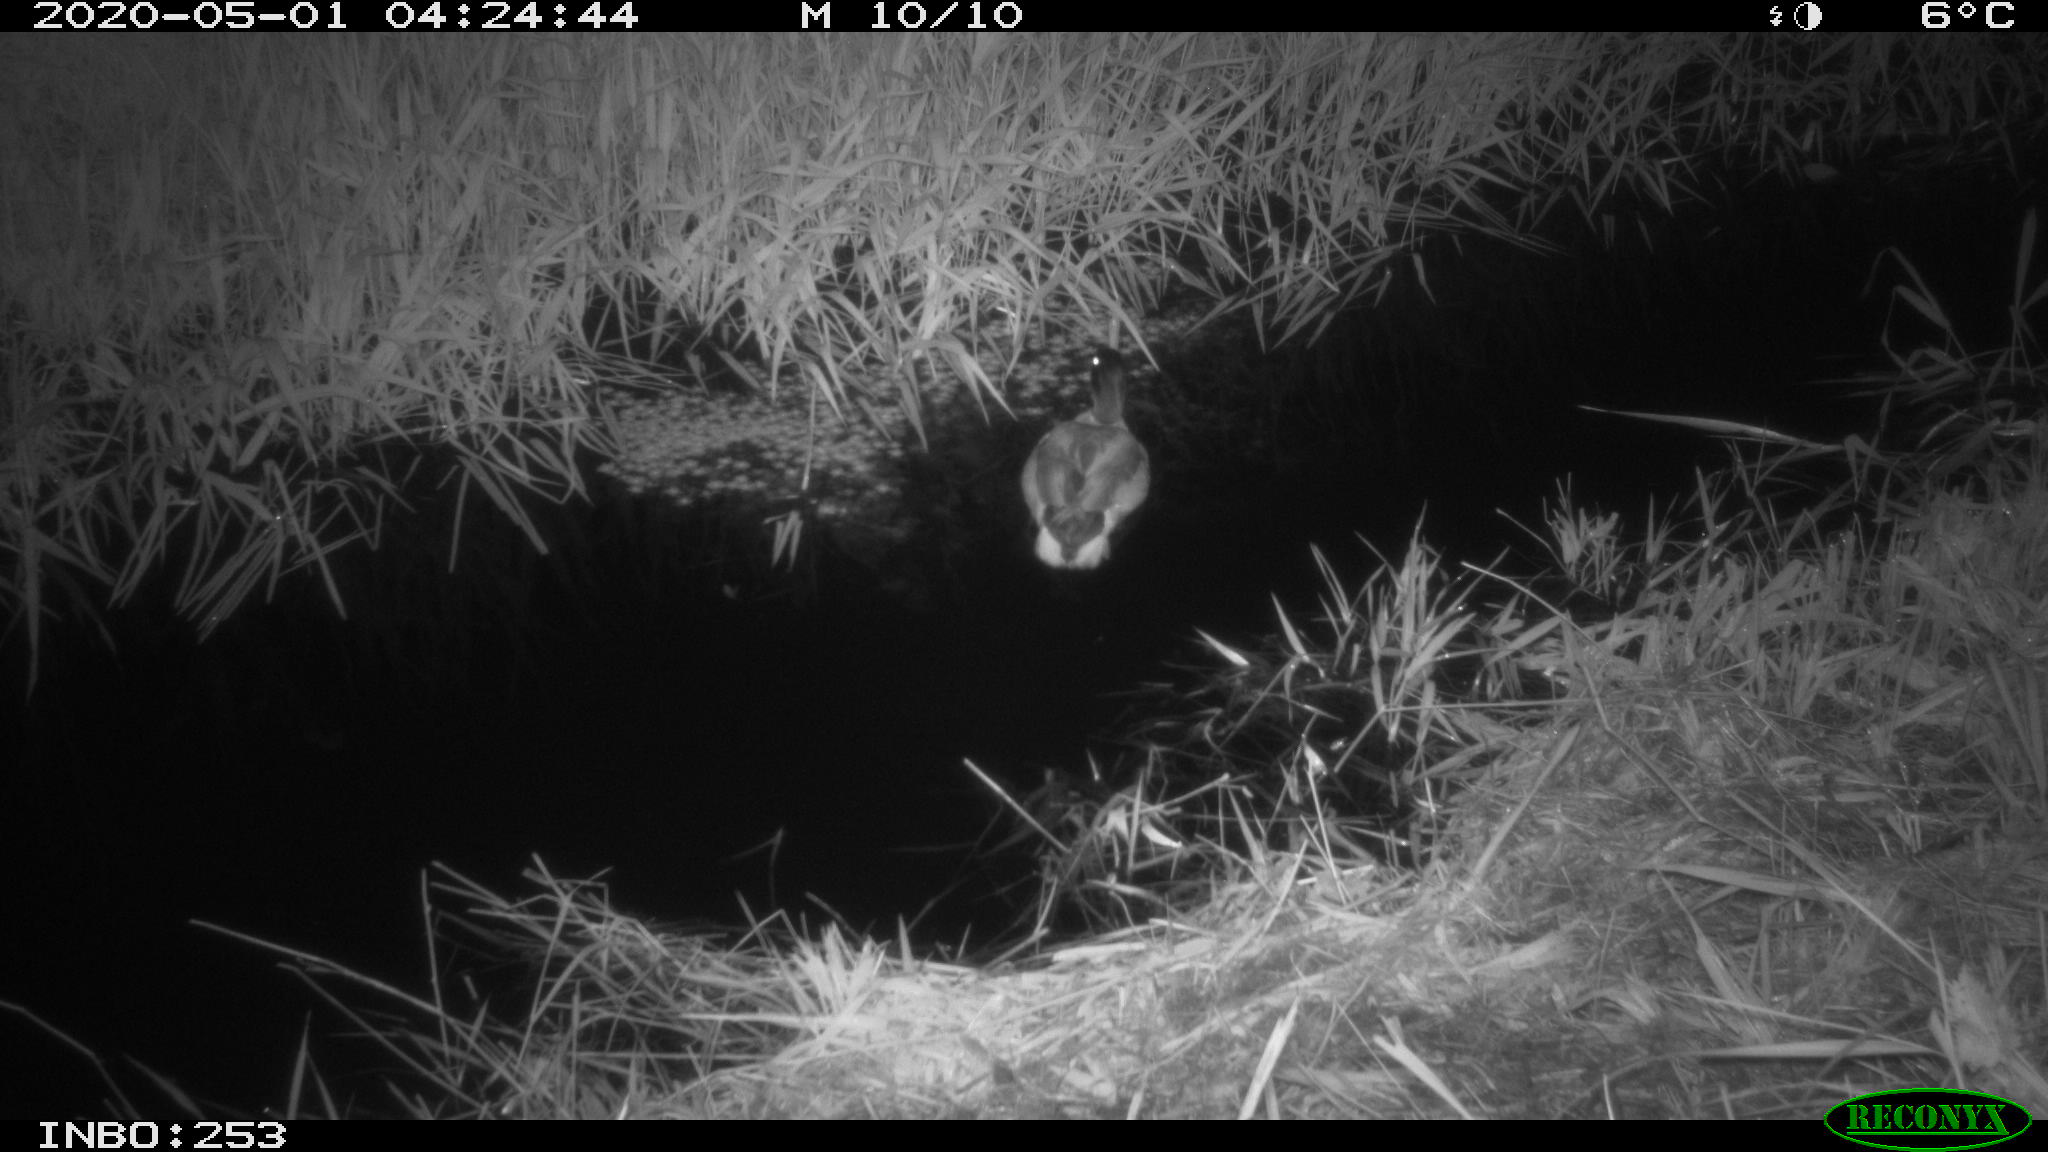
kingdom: Animalia
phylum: Chordata
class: Aves
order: Anseriformes
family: Anatidae
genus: Anas
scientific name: Anas platyrhynchos
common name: Mallard
